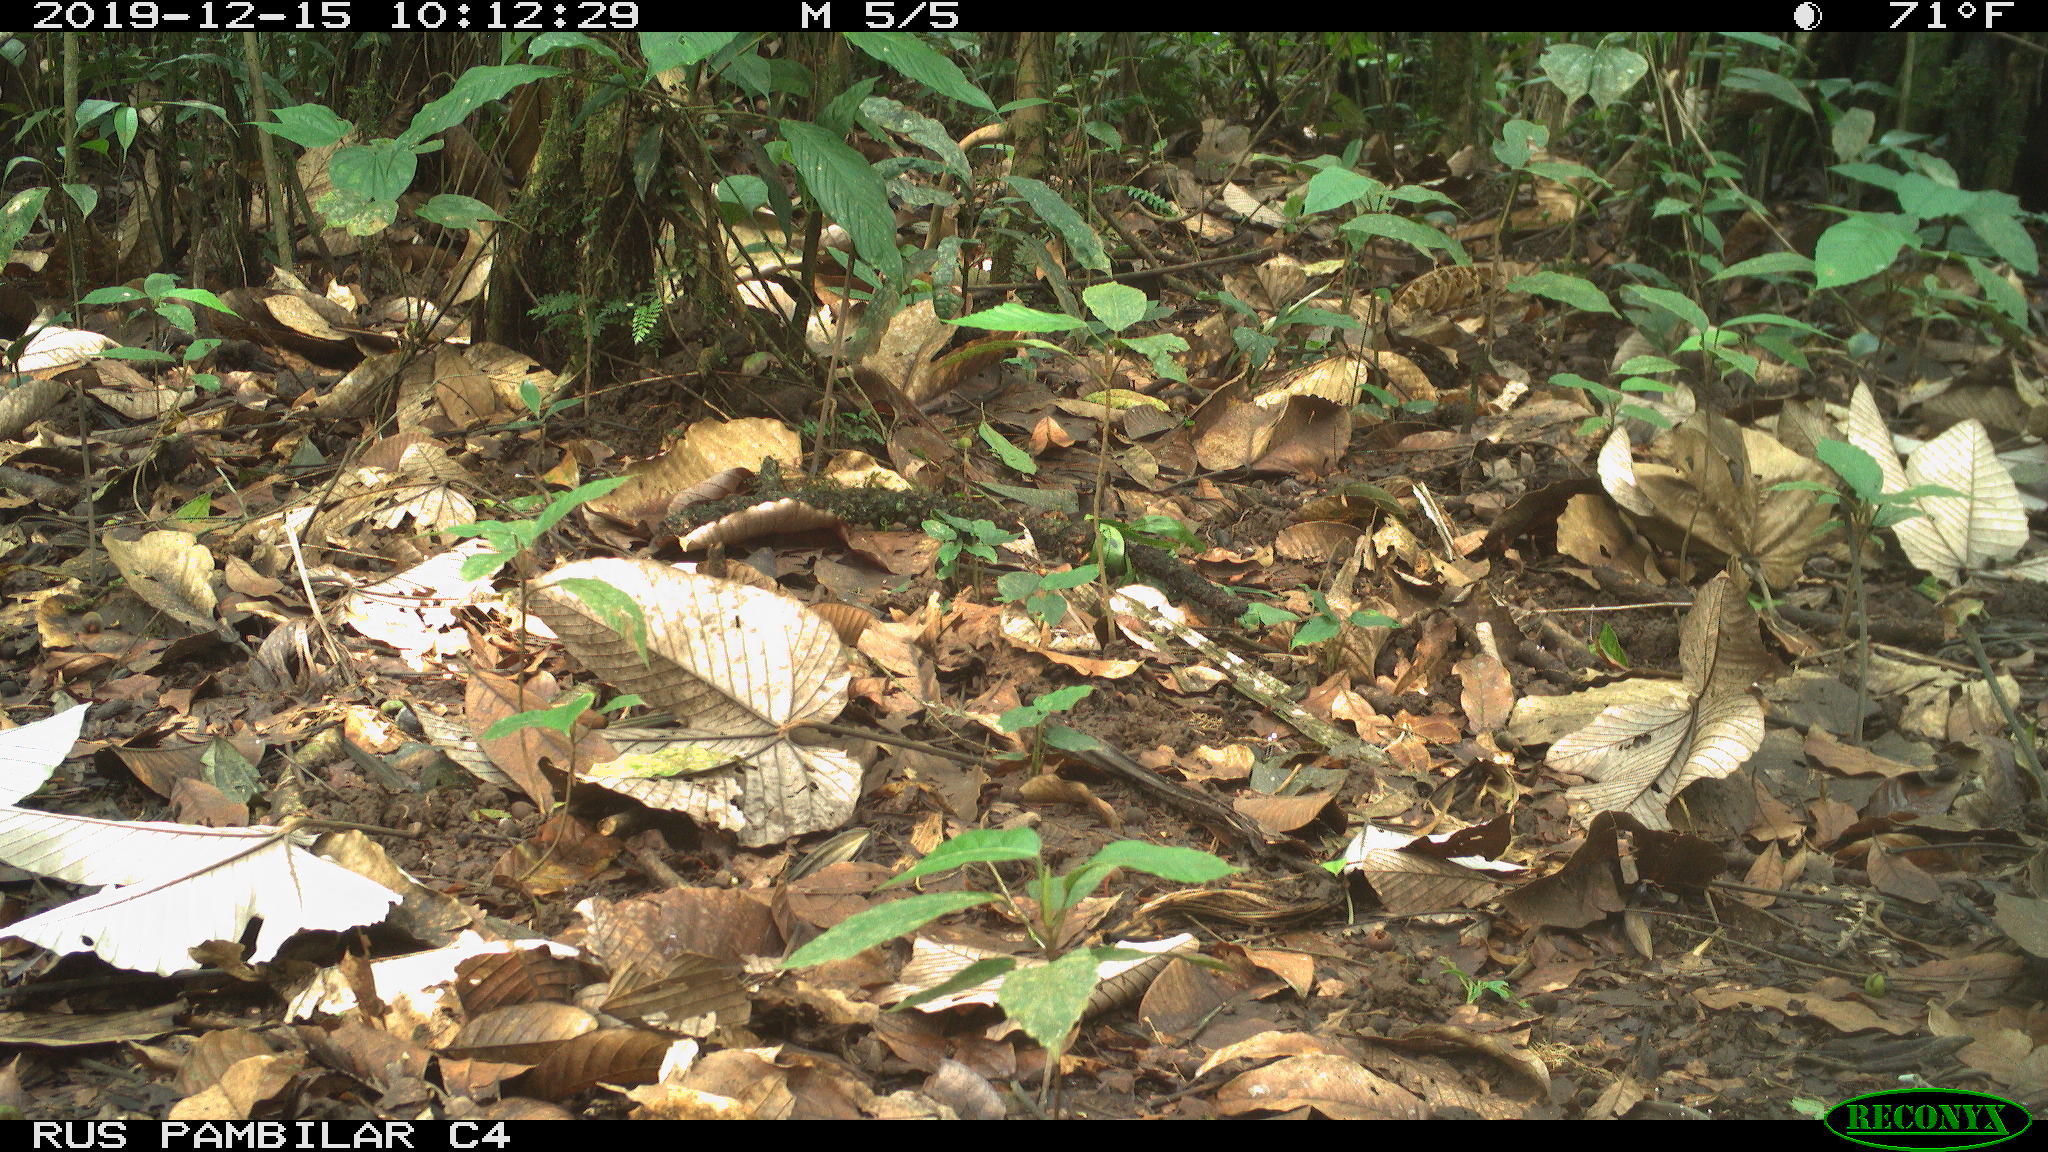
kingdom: Animalia
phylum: Chordata
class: Mammalia
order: Artiodactyla
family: Tayassuidae
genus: Tayassu
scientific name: Tayassu pecari
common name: White-lipped peccary
